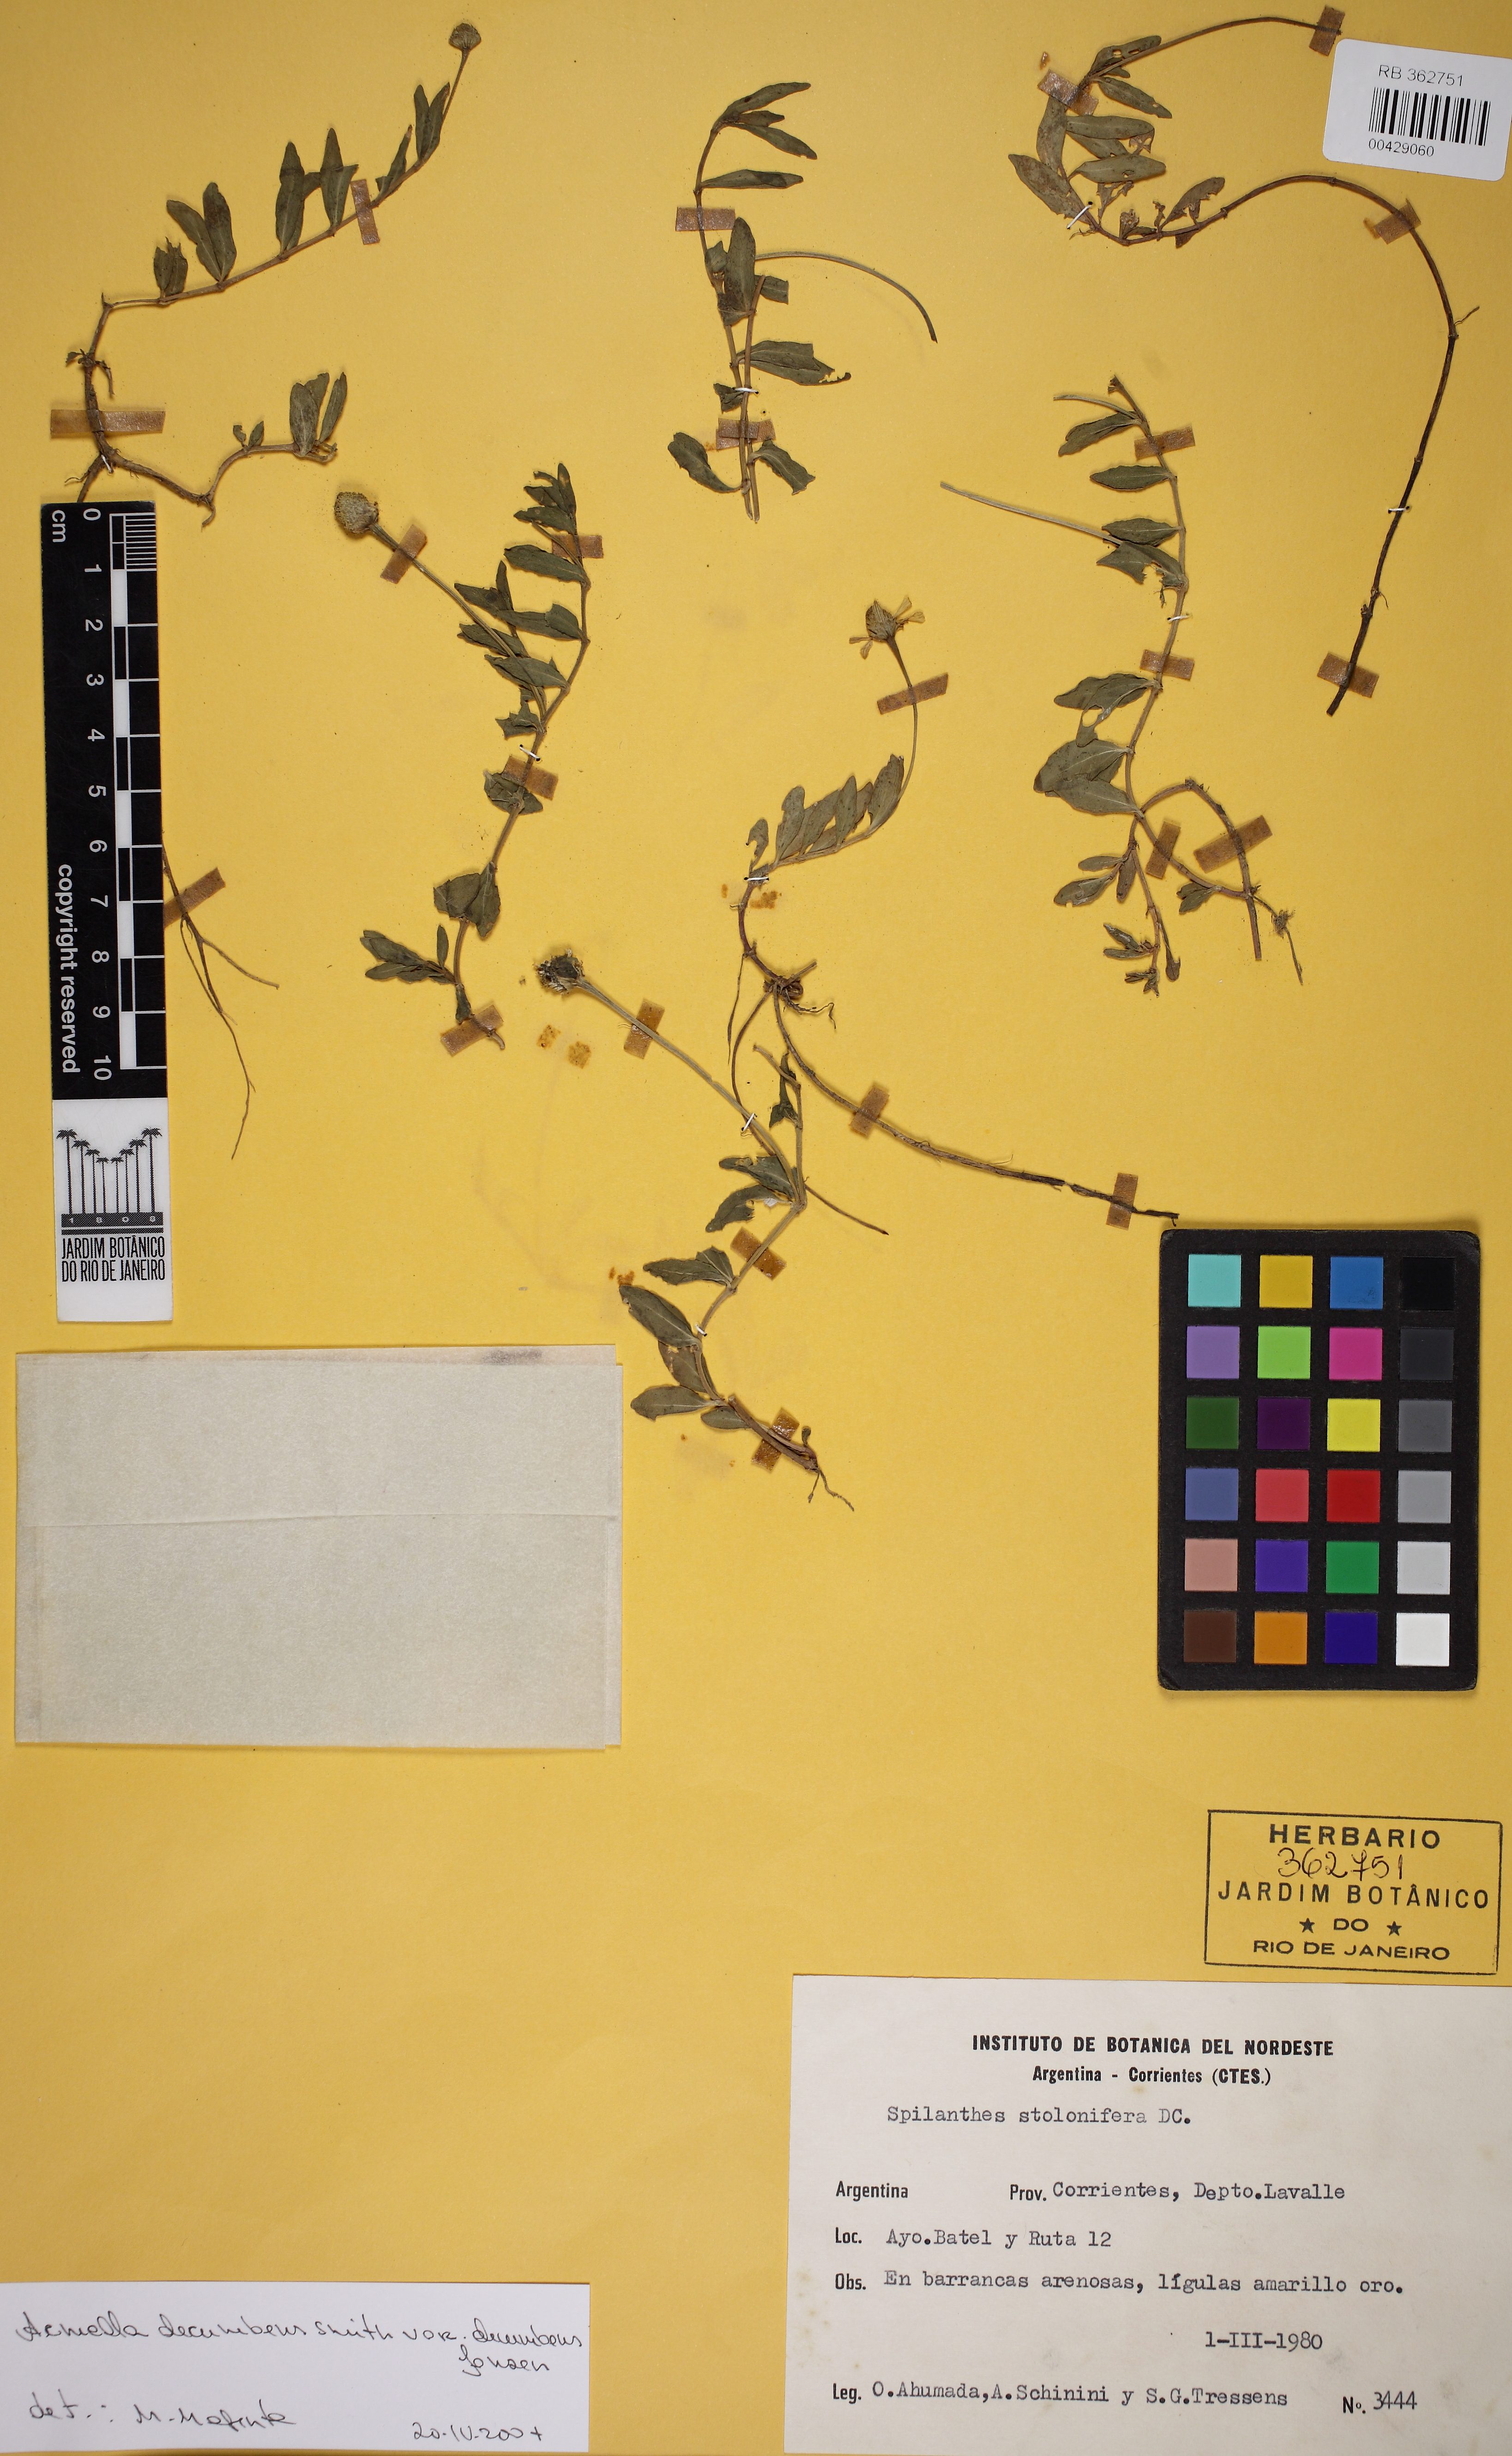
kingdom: Plantae
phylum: Tracheophyta
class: Magnoliopsida
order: Asterales
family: Asteraceae
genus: Acmella
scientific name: Acmella decumbens
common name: Creeping spotflower
